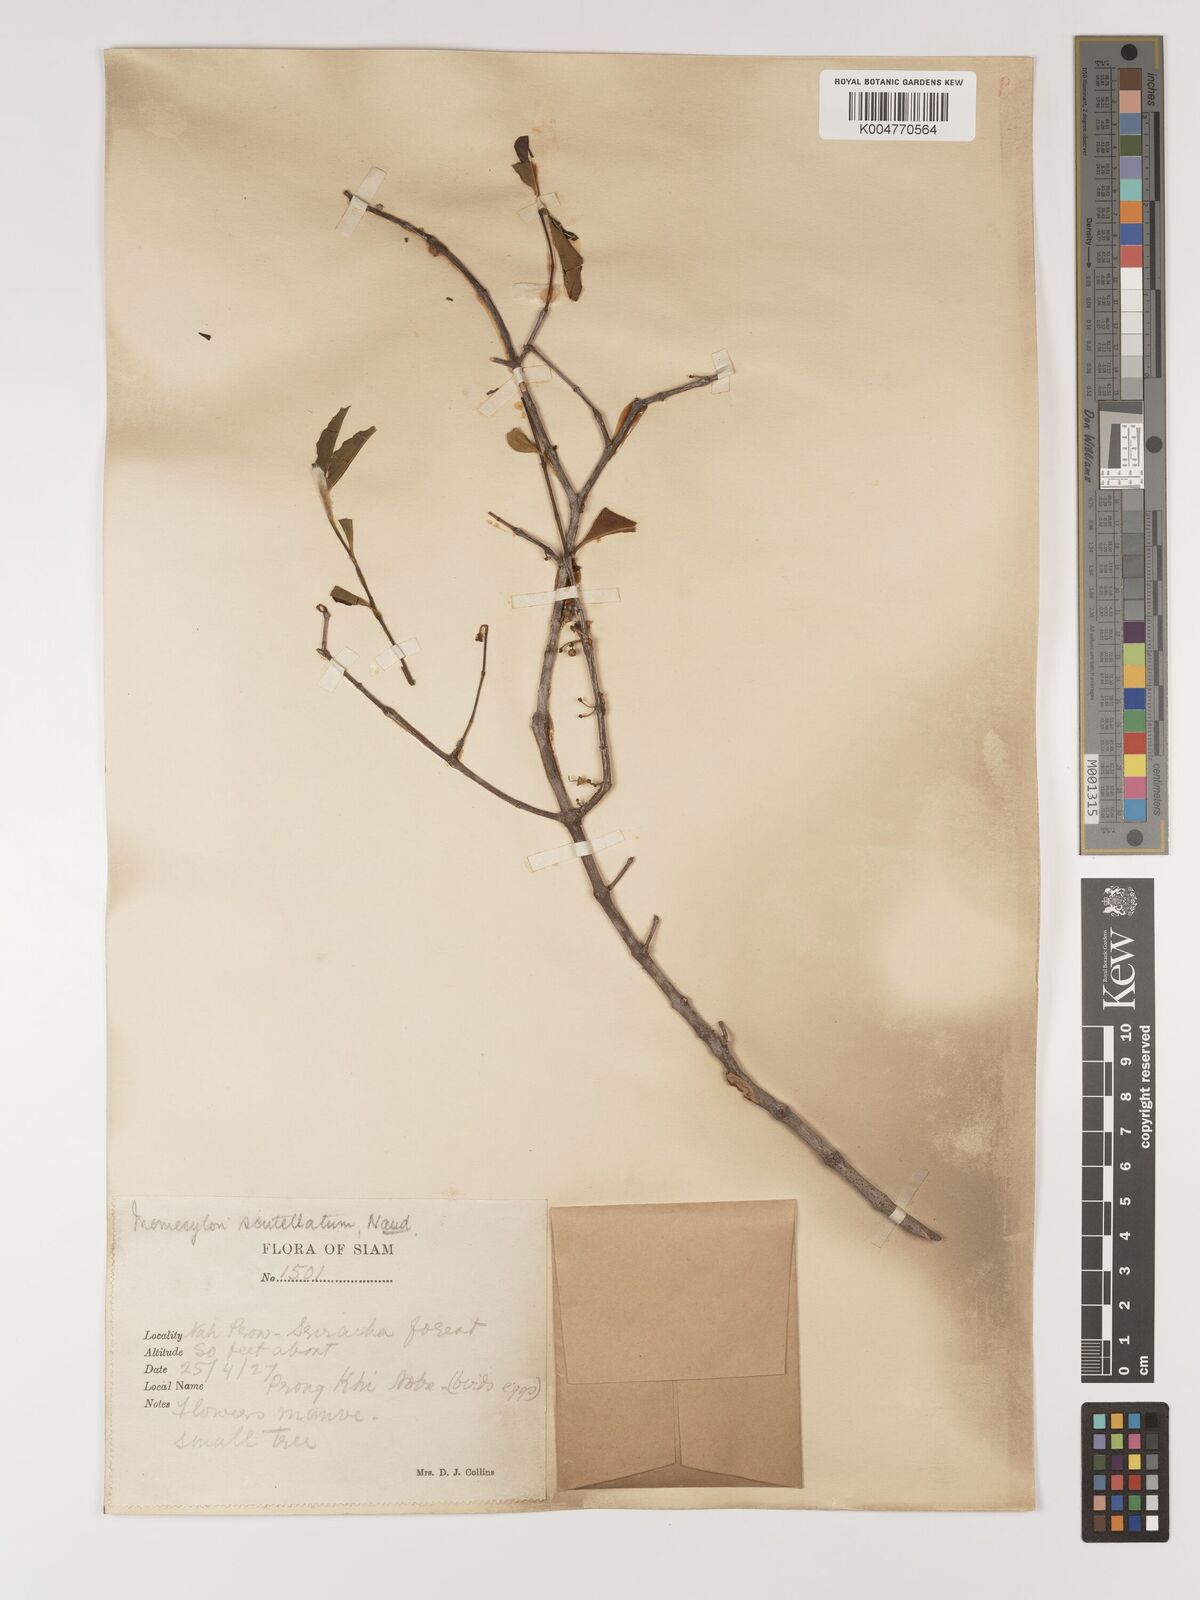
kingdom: Plantae
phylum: Tracheophyta
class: Magnoliopsida
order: Myrtales
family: Melastomataceae
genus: Memecylon
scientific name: Memecylon scutellatum
